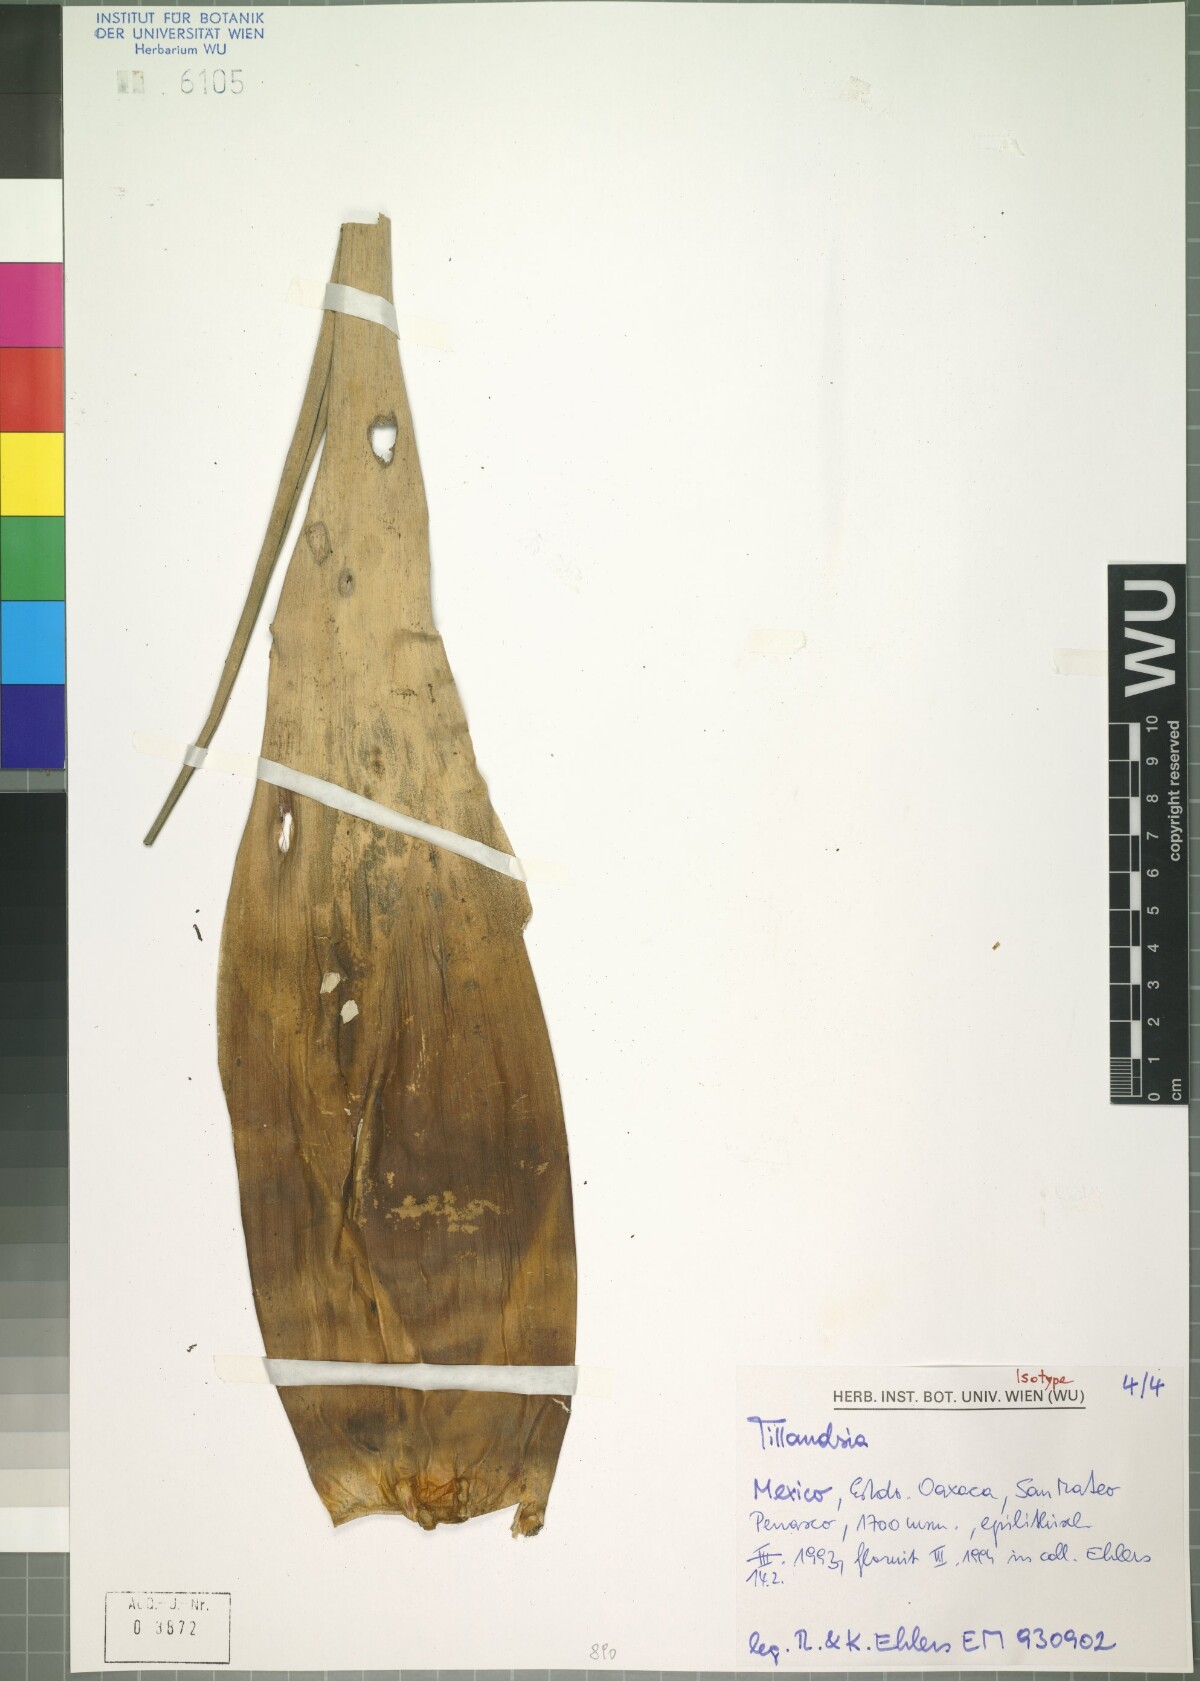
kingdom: Plantae
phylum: Tracheophyta
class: Liliopsida
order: Poales
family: Bromeliaceae
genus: Tillandsia
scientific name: Tillandsia celata
